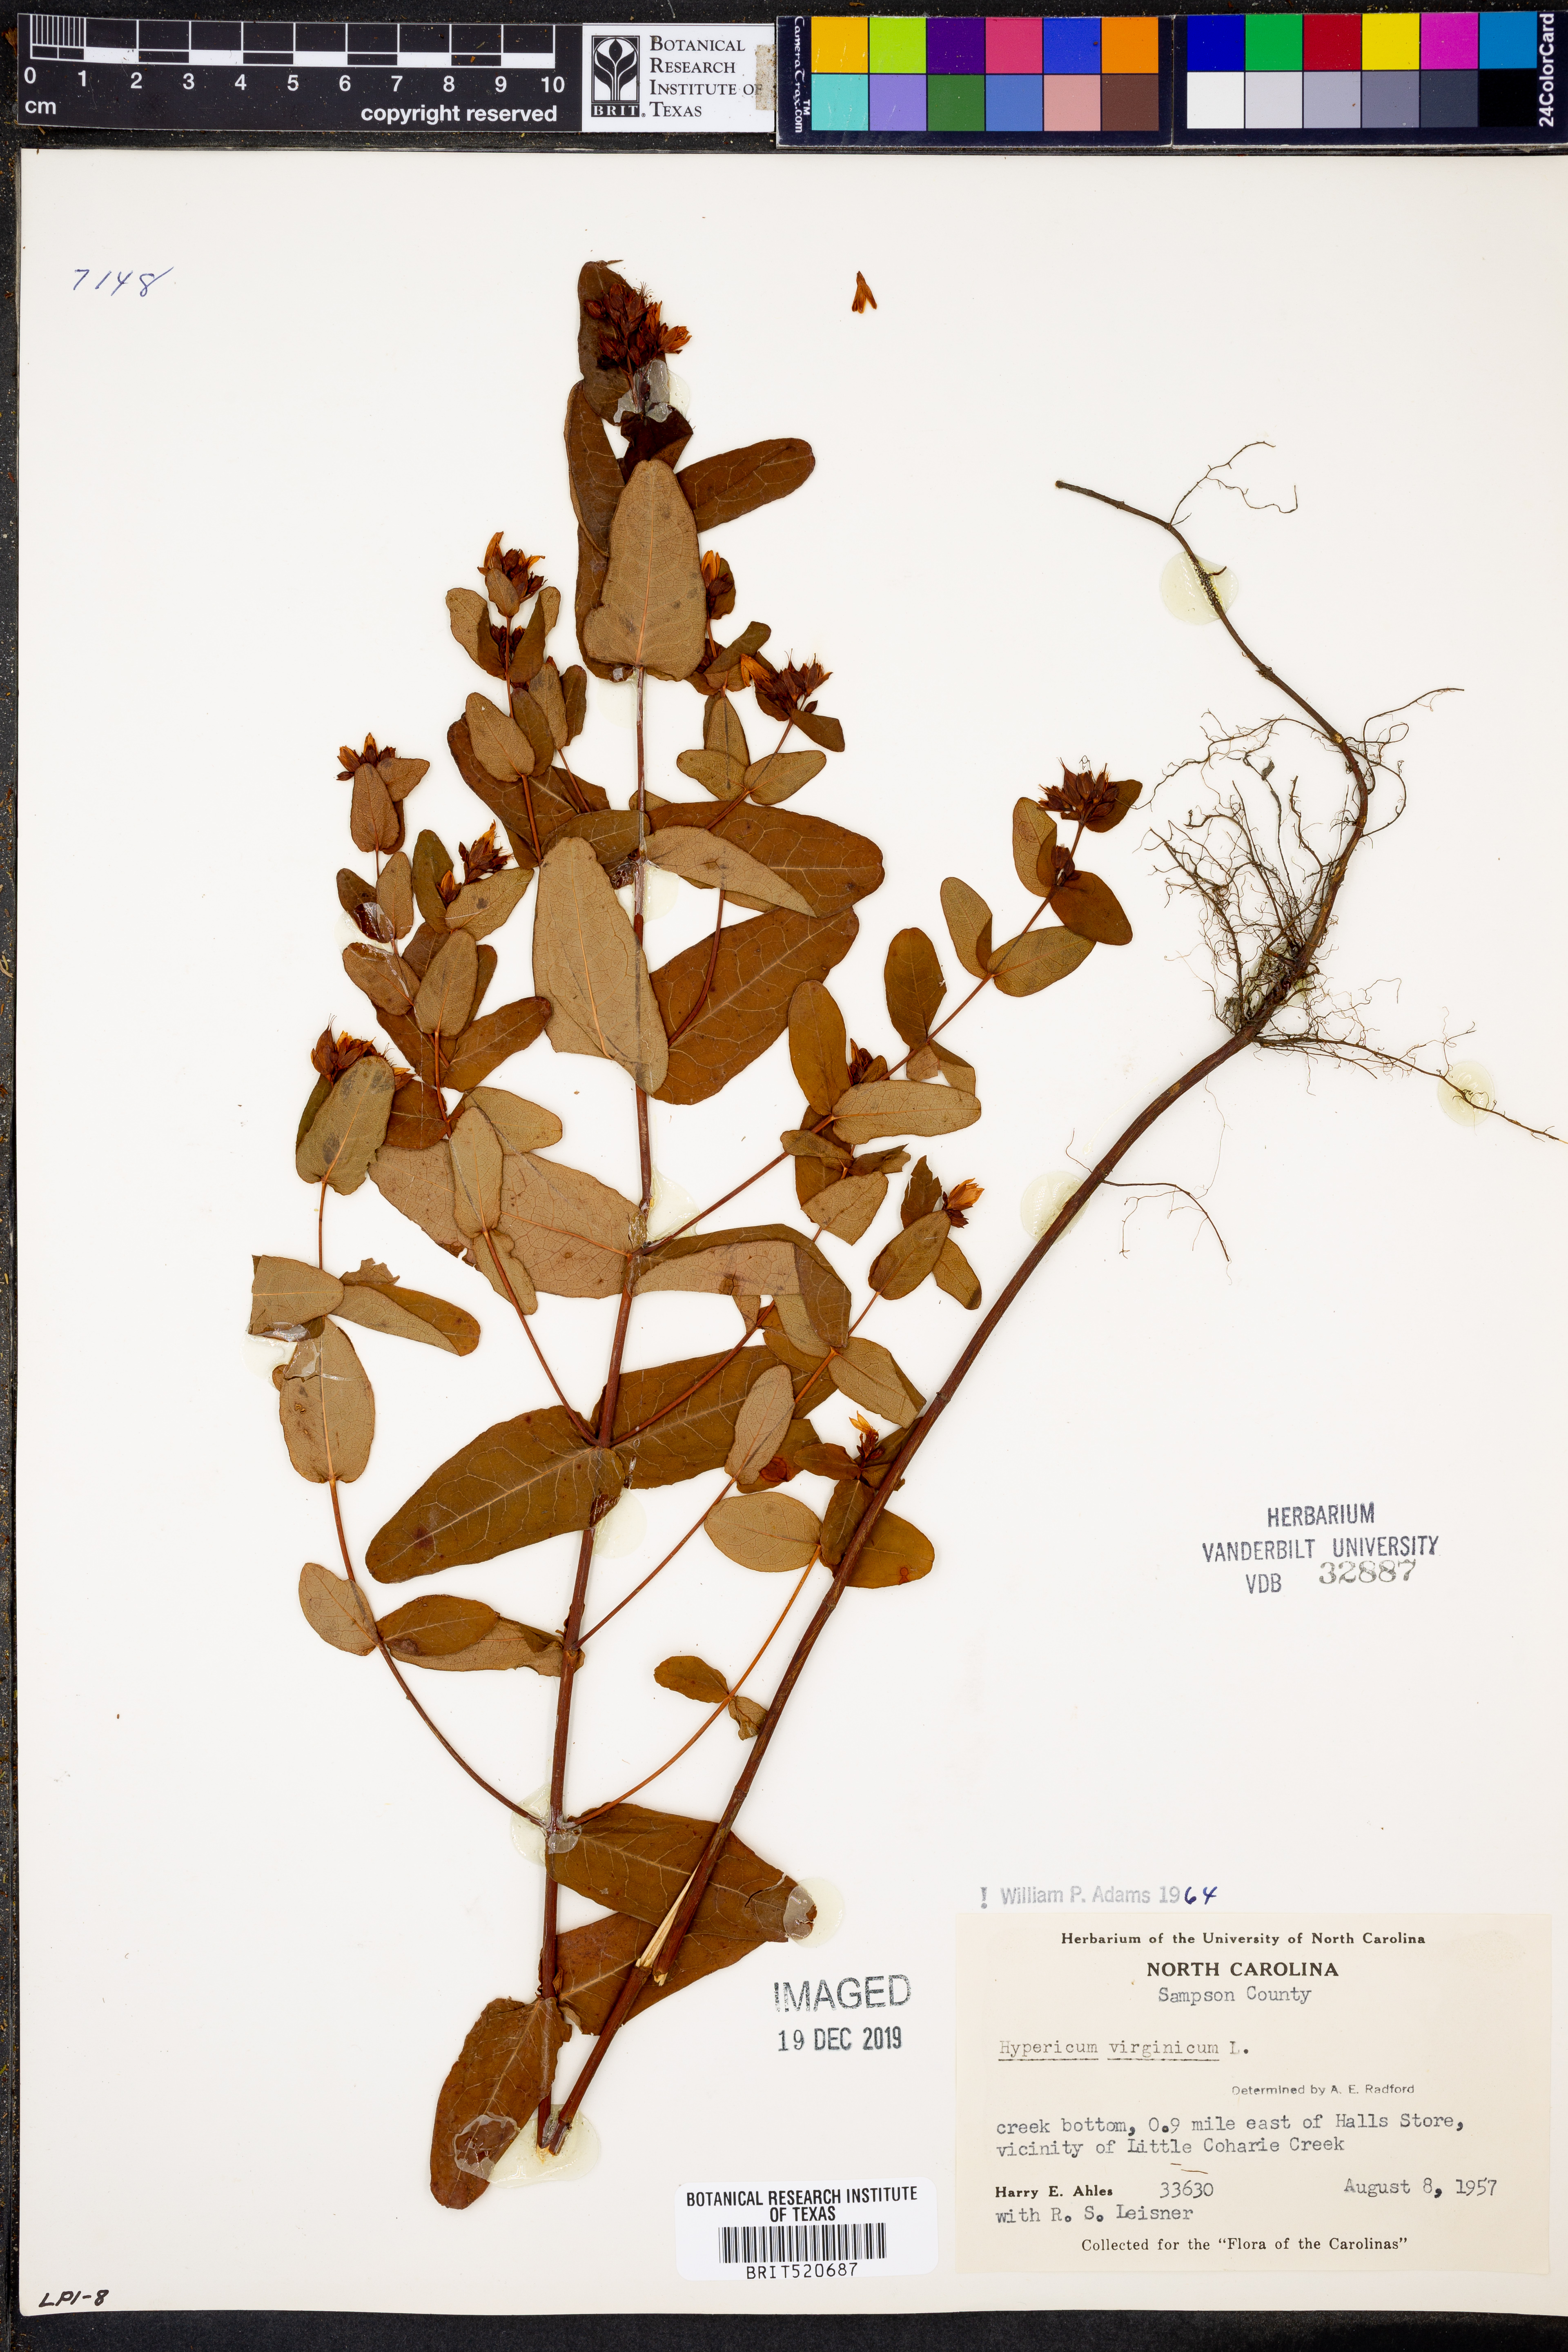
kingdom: Plantae
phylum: Tracheophyta
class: Magnoliopsida
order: Malpighiales
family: Hypericaceae
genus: Triadenum
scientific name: Triadenum virginicum
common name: Marsh st. john's-wort
